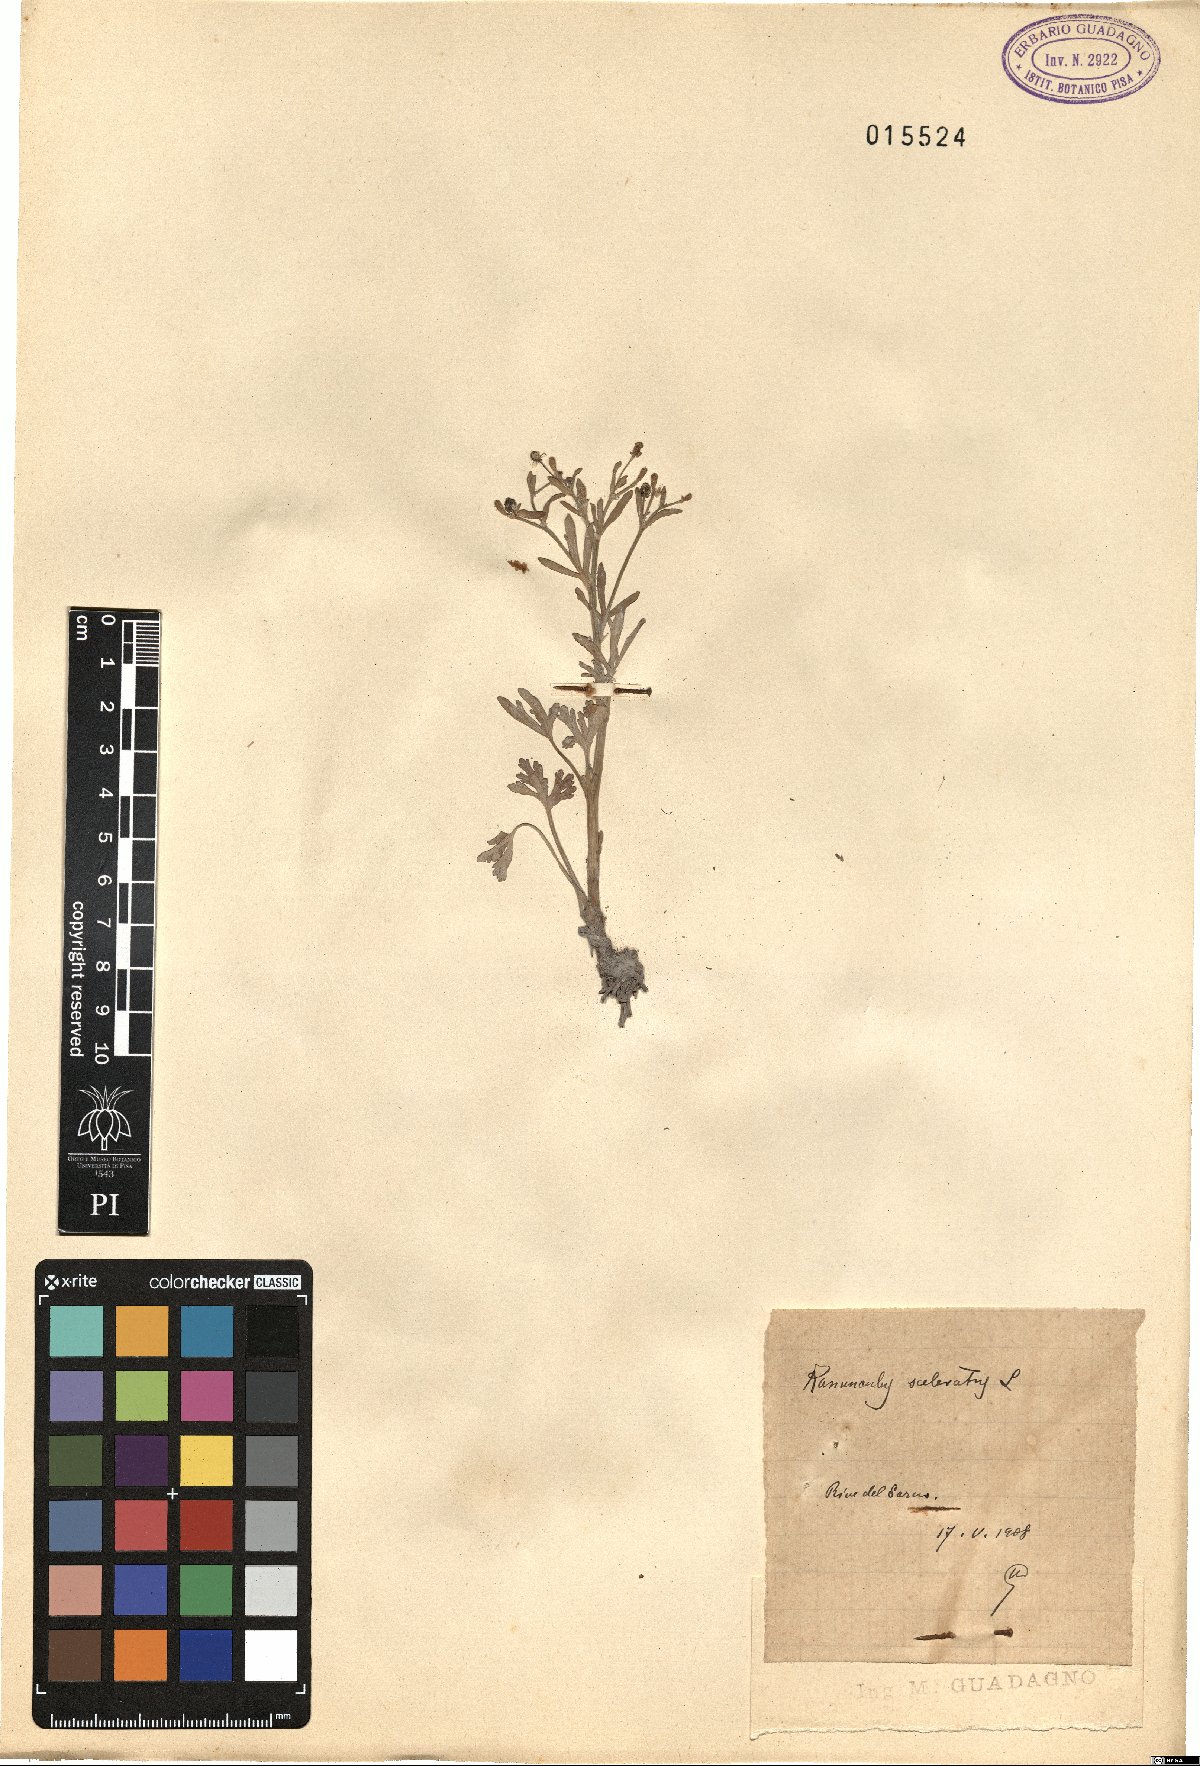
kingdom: Plantae
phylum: Tracheophyta
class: Magnoliopsida
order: Ranunculales
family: Ranunculaceae
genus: Ranunculus
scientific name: Ranunculus sceleratus
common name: Celery-leaved buttercup
